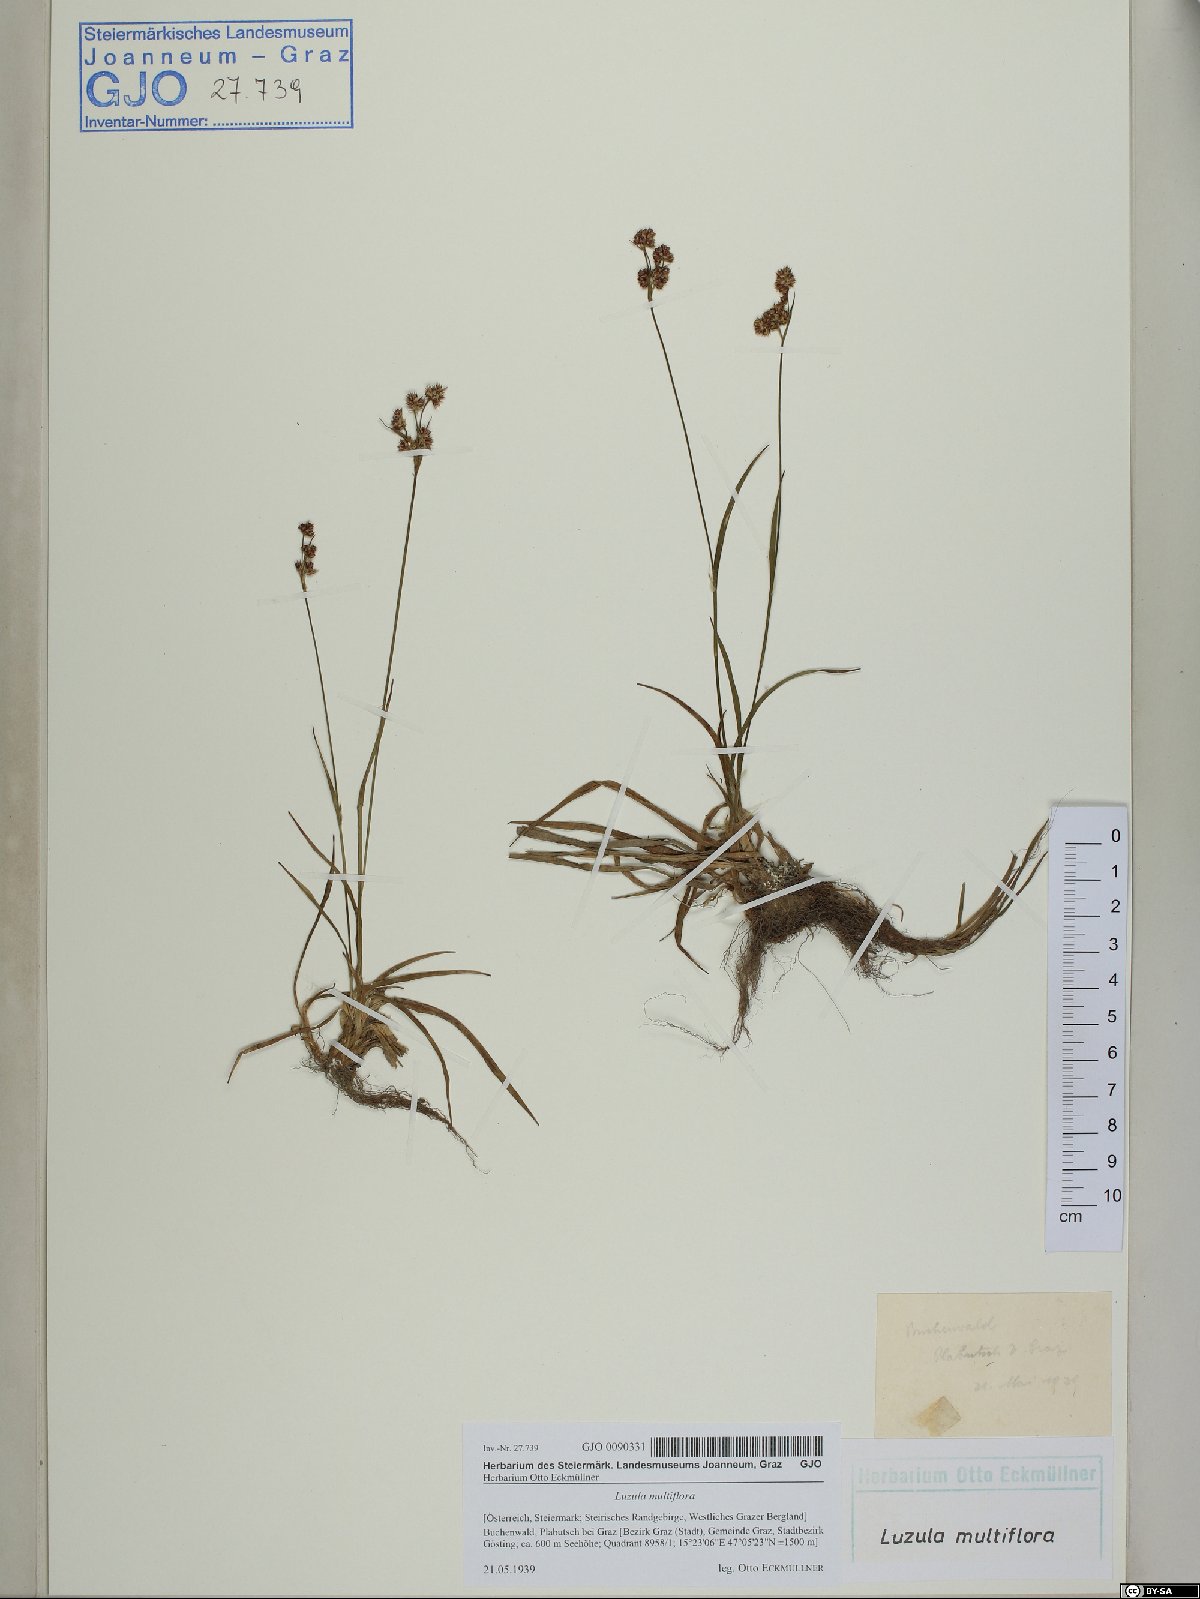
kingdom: Plantae
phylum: Tracheophyta
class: Liliopsida
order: Poales
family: Juncaceae
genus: Luzula
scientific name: Luzula multiflora
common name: Heath wood-rush
